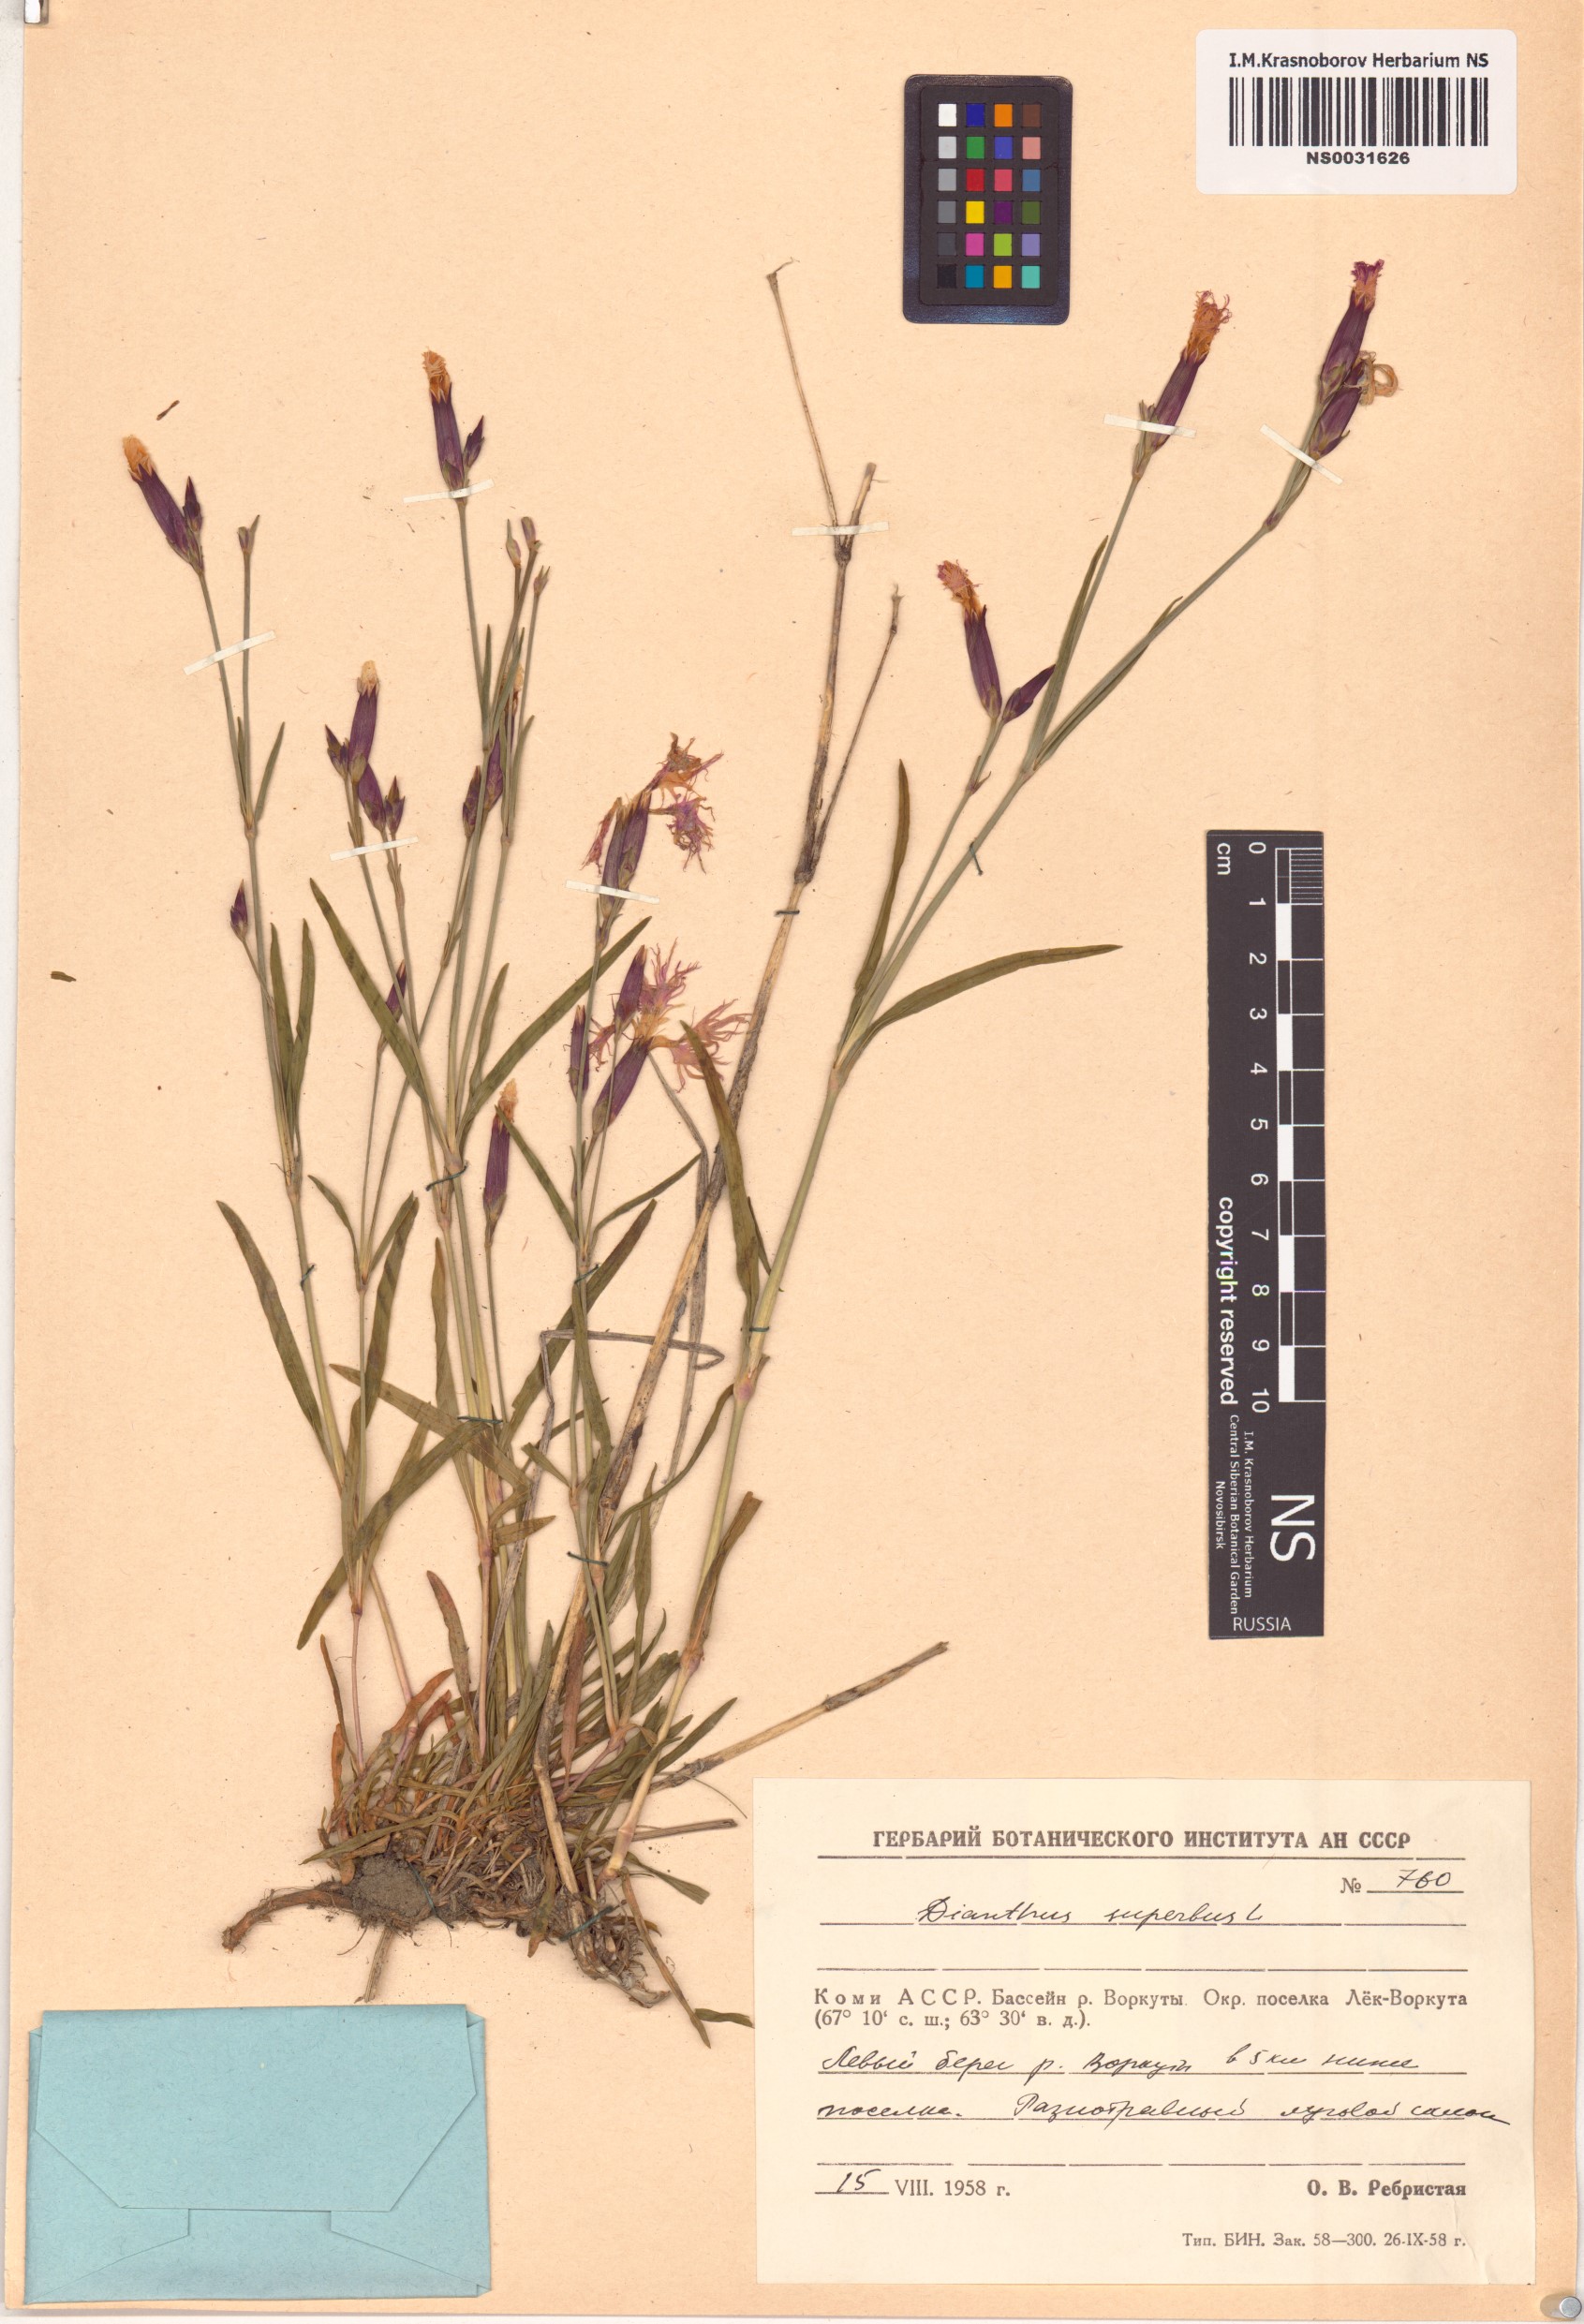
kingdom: Plantae
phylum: Tracheophyta
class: Magnoliopsida
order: Caryophyllales
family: Caryophyllaceae
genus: Dianthus
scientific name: Dianthus superbus
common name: Fringed pink
